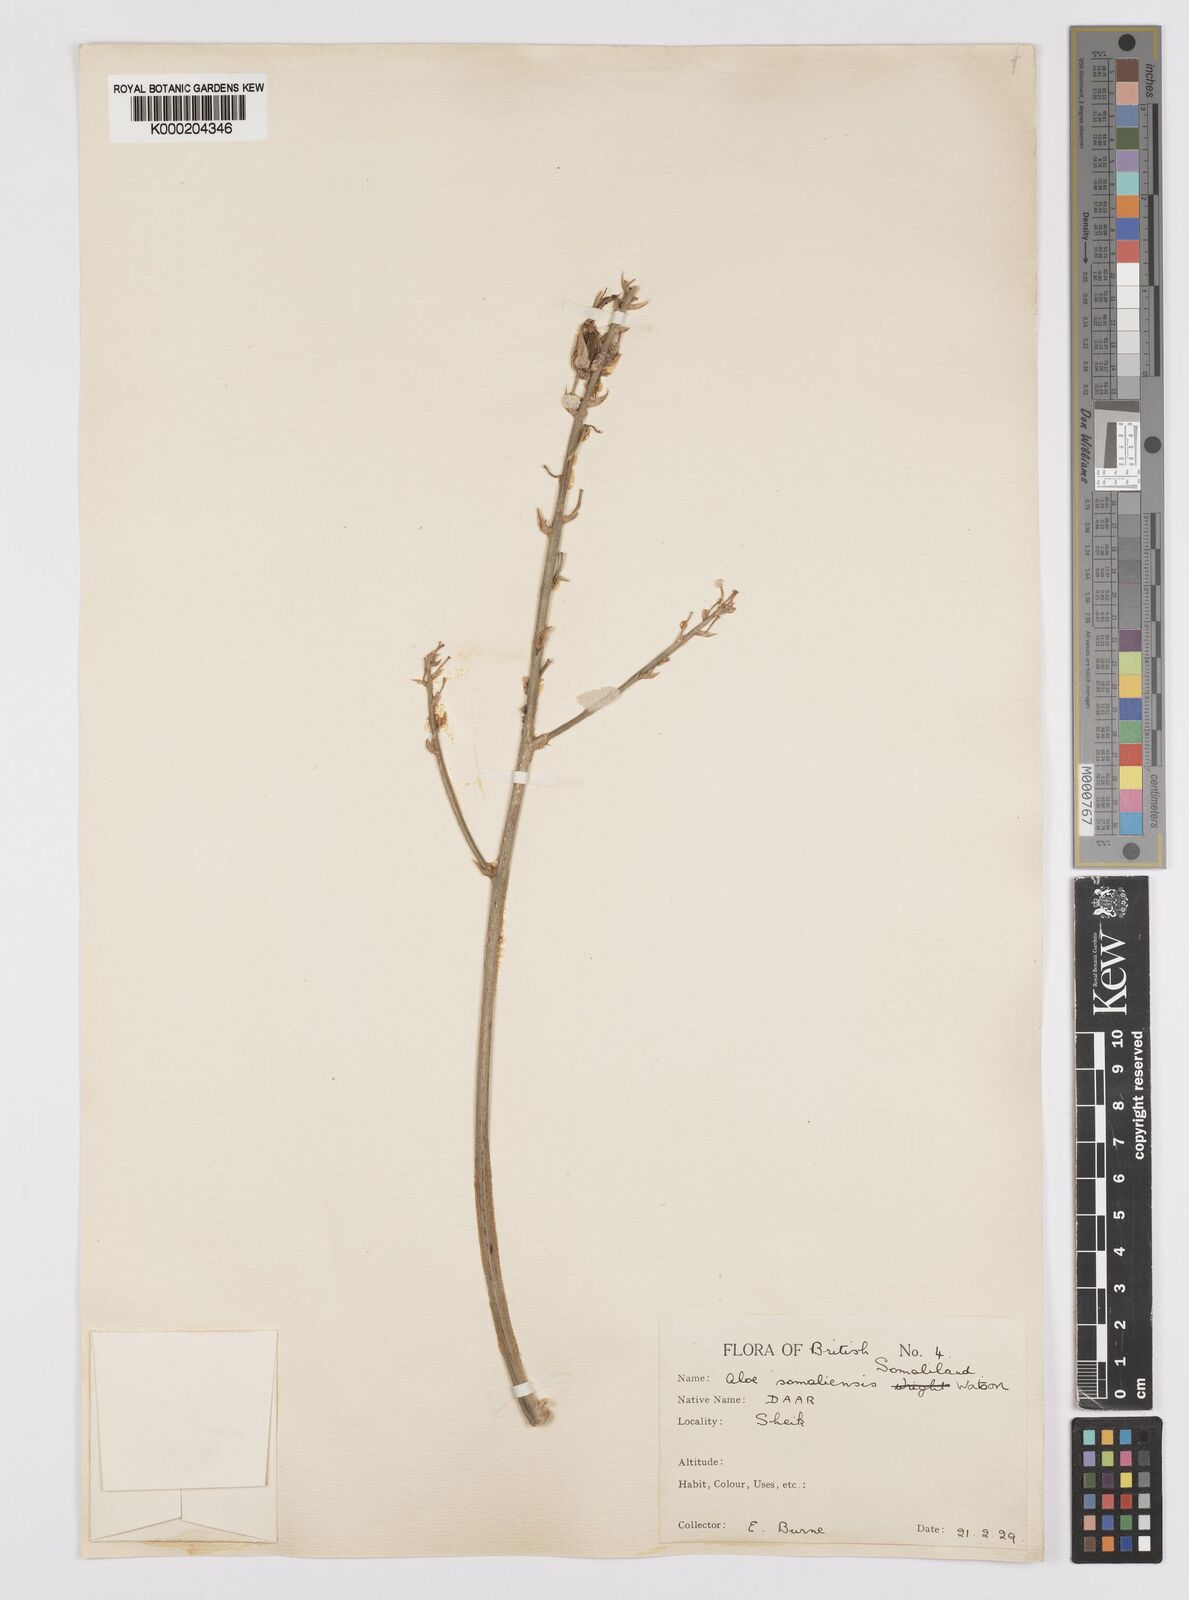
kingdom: Plantae
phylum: Tracheophyta
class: Liliopsida
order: Asparagales
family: Asphodelaceae
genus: Aloe
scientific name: Aloe somaliensis
